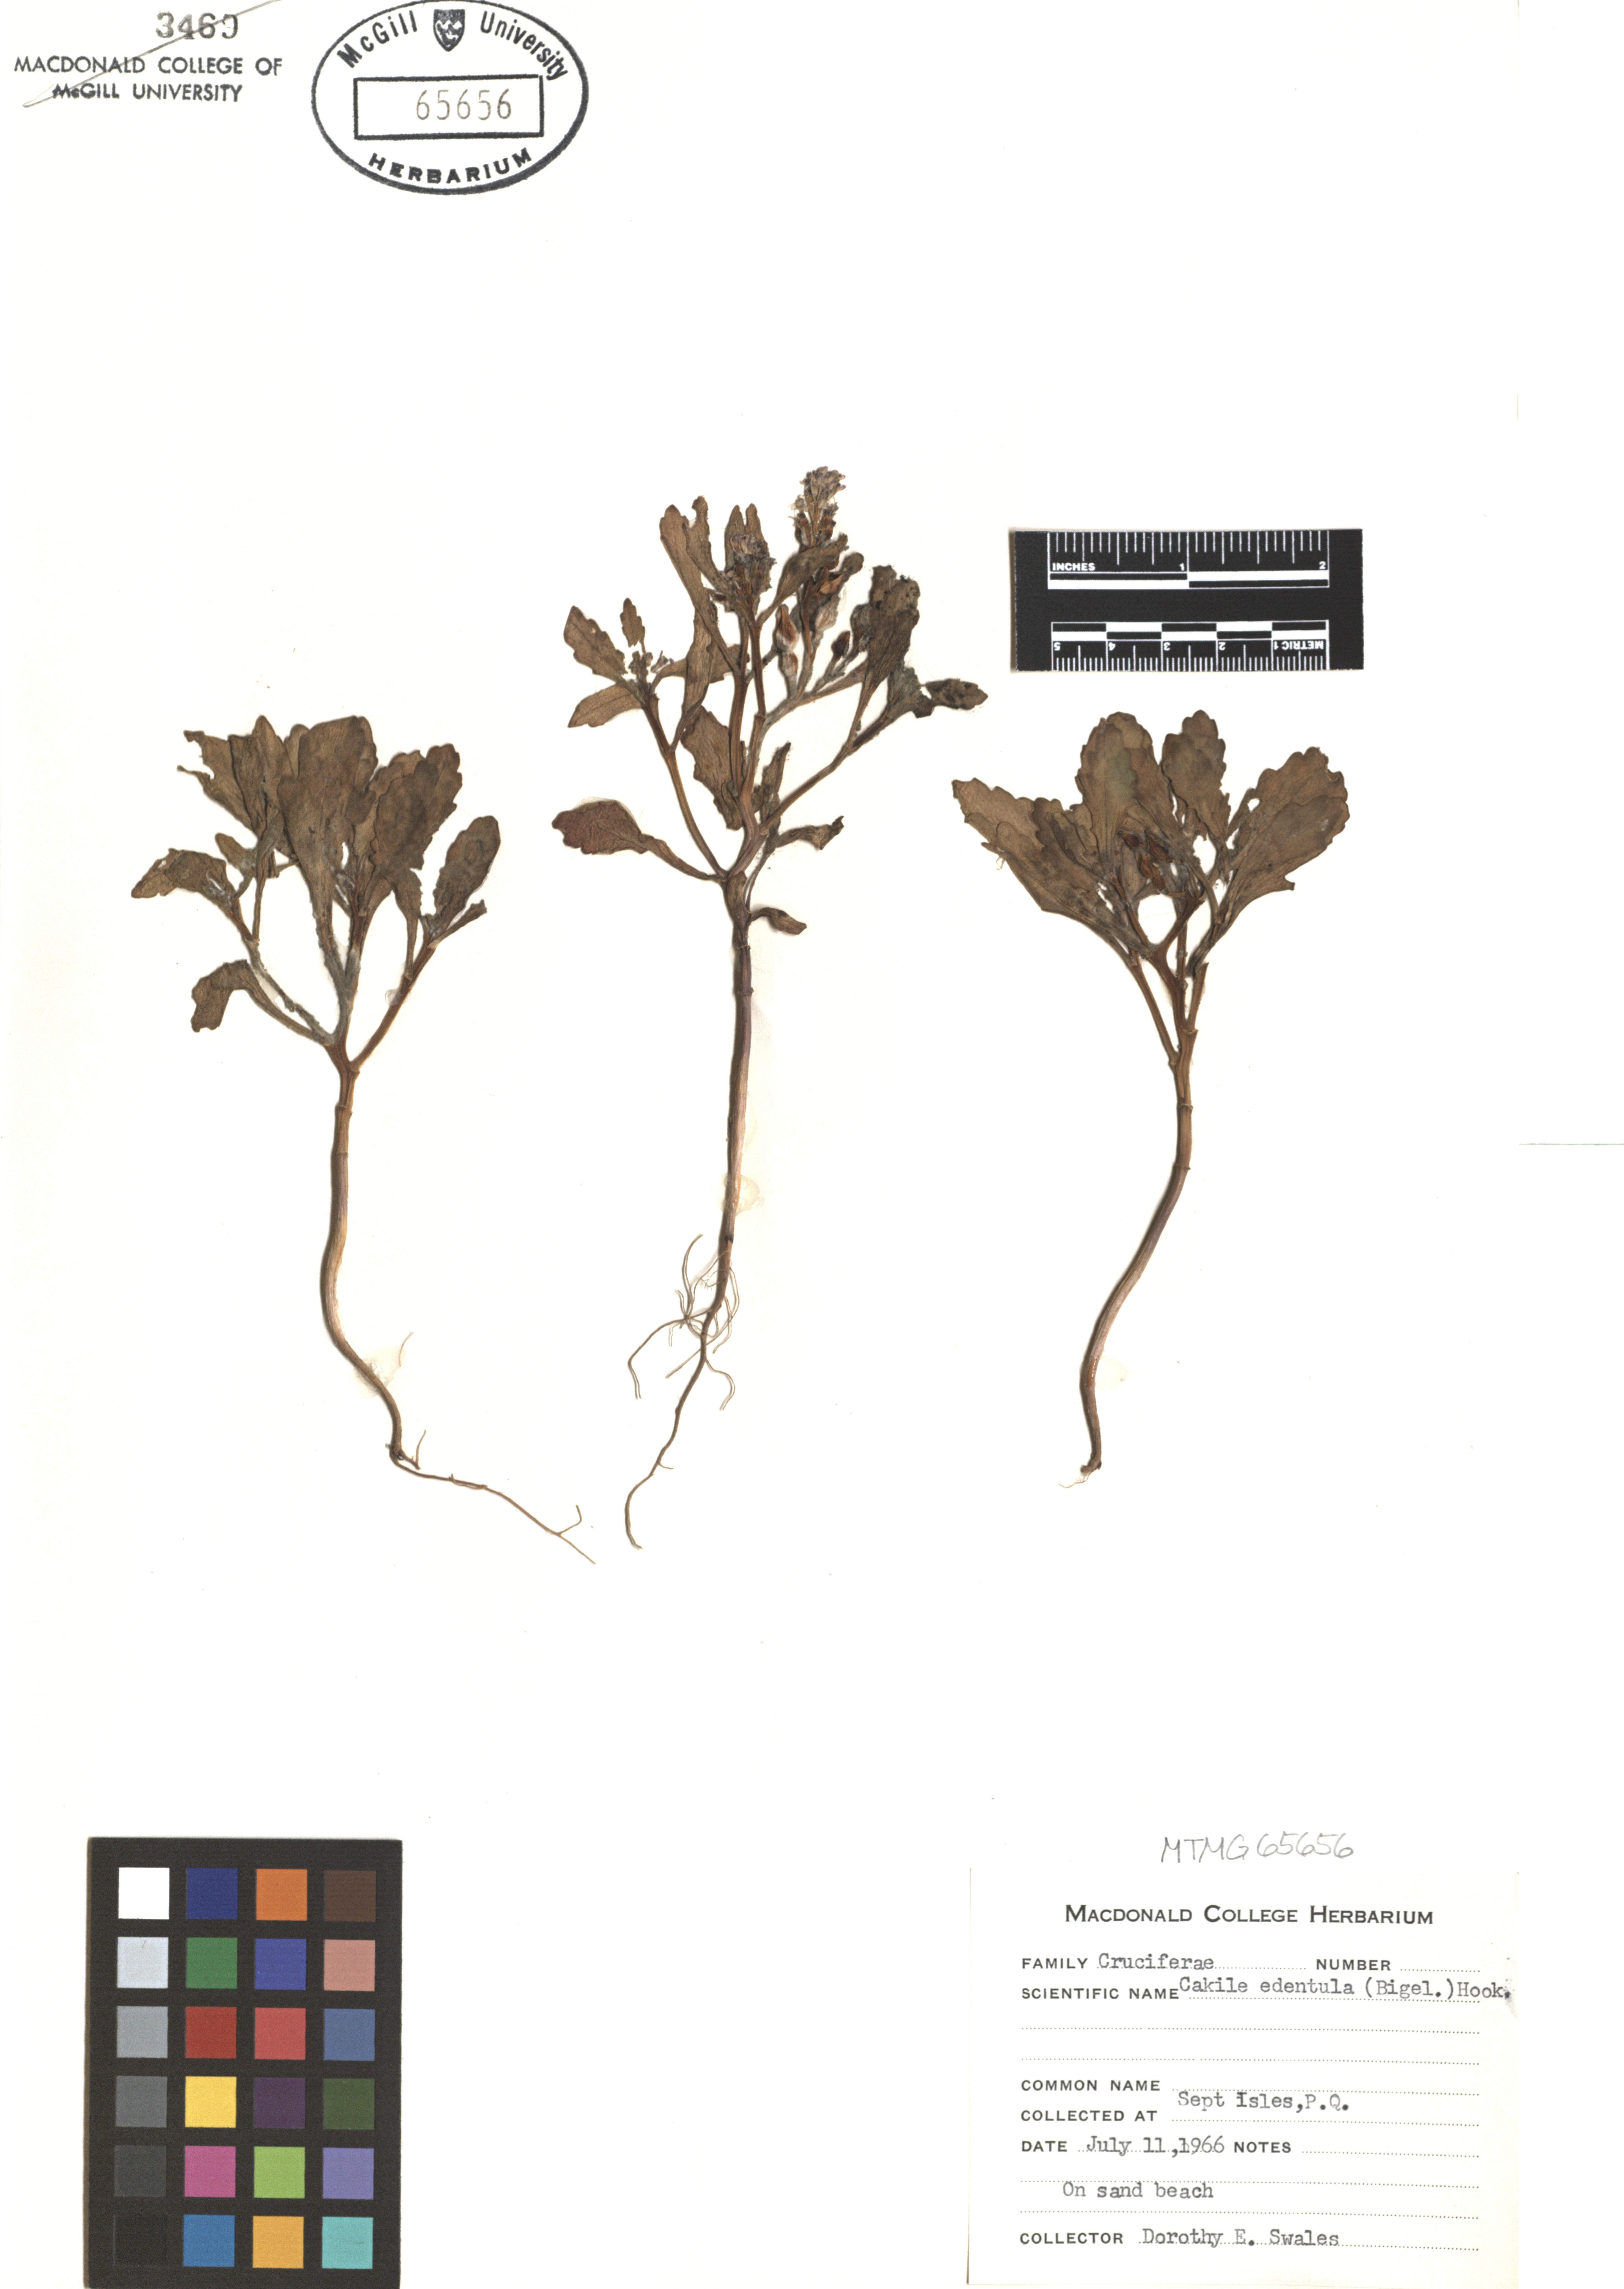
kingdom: Plantae
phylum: Tracheophyta
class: Magnoliopsida
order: Brassicales
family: Brassicaceae
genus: Cakile
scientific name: Cakile edentula
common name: American sea rocket
